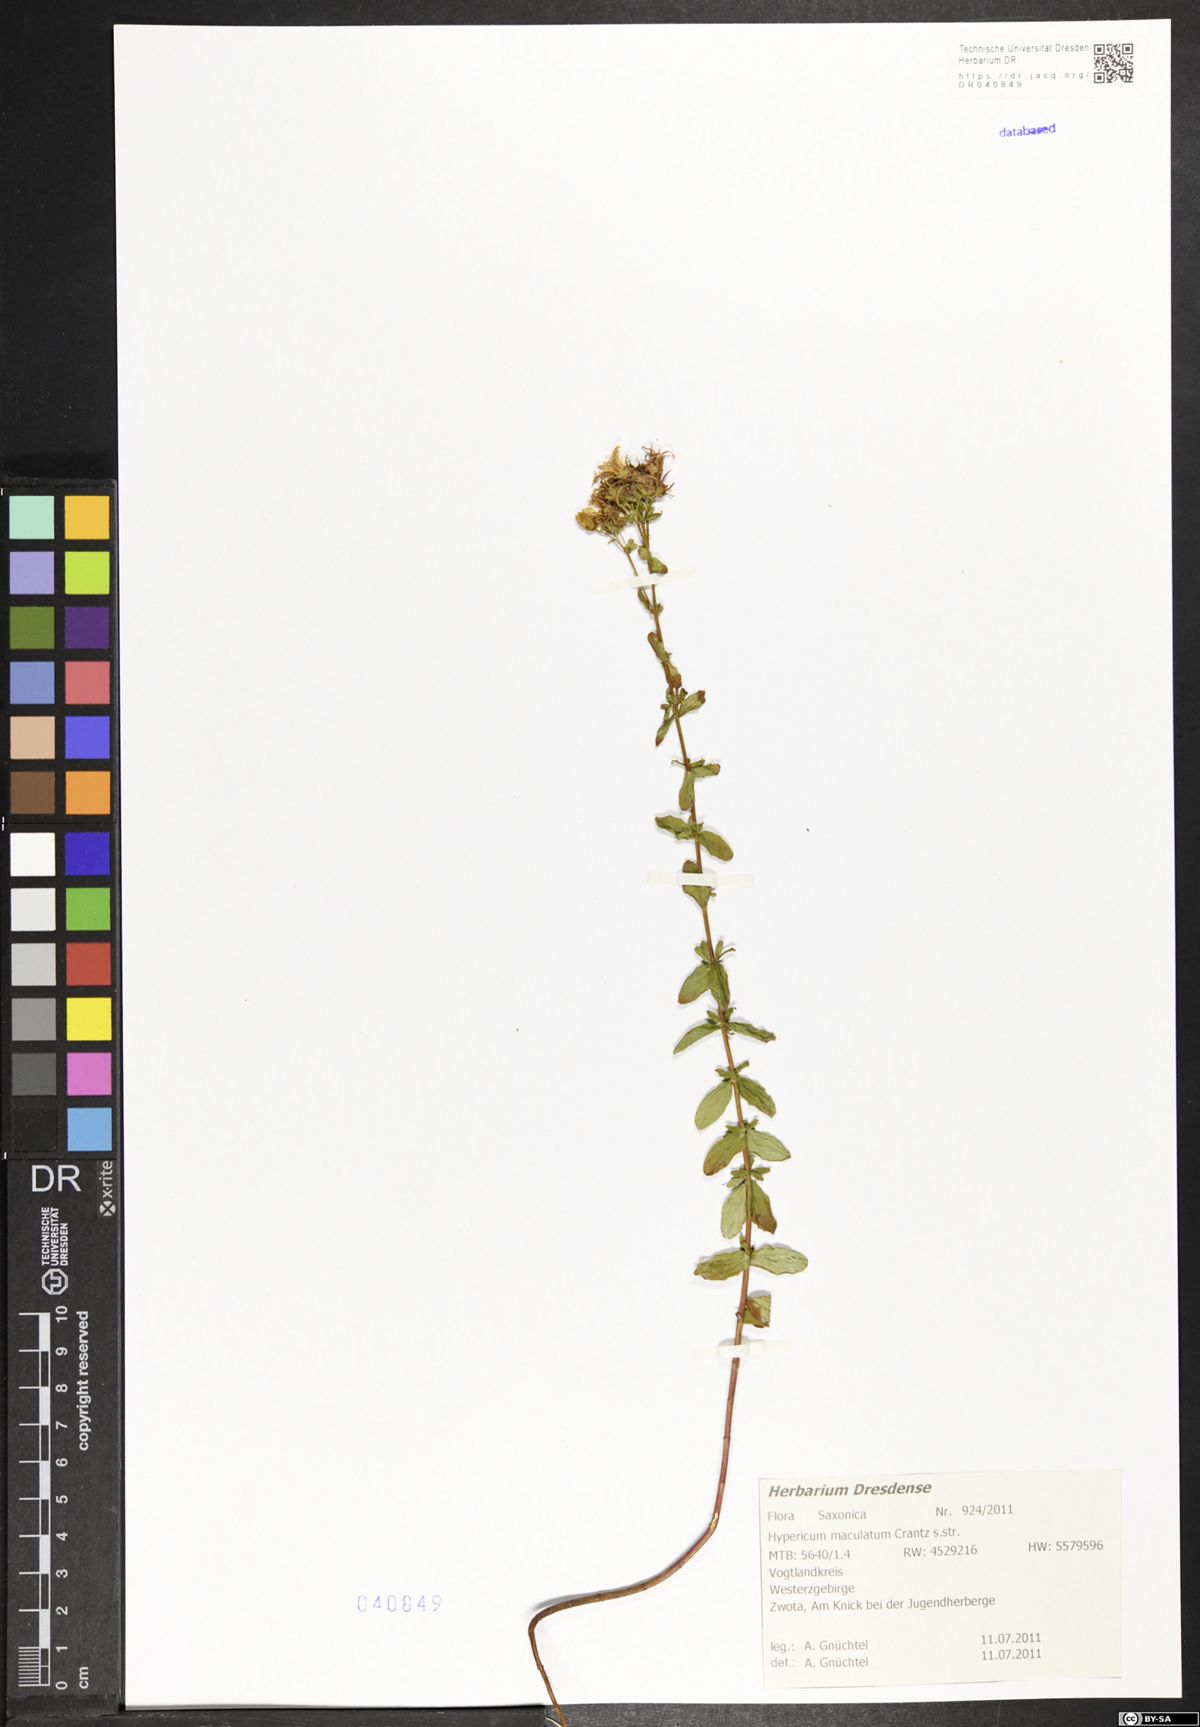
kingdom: Plantae
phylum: Tracheophyta
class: Magnoliopsida
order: Malpighiales
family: Hypericaceae
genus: Hypericum
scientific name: Hypericum maculatum
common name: Imperforate st. john's-wort
